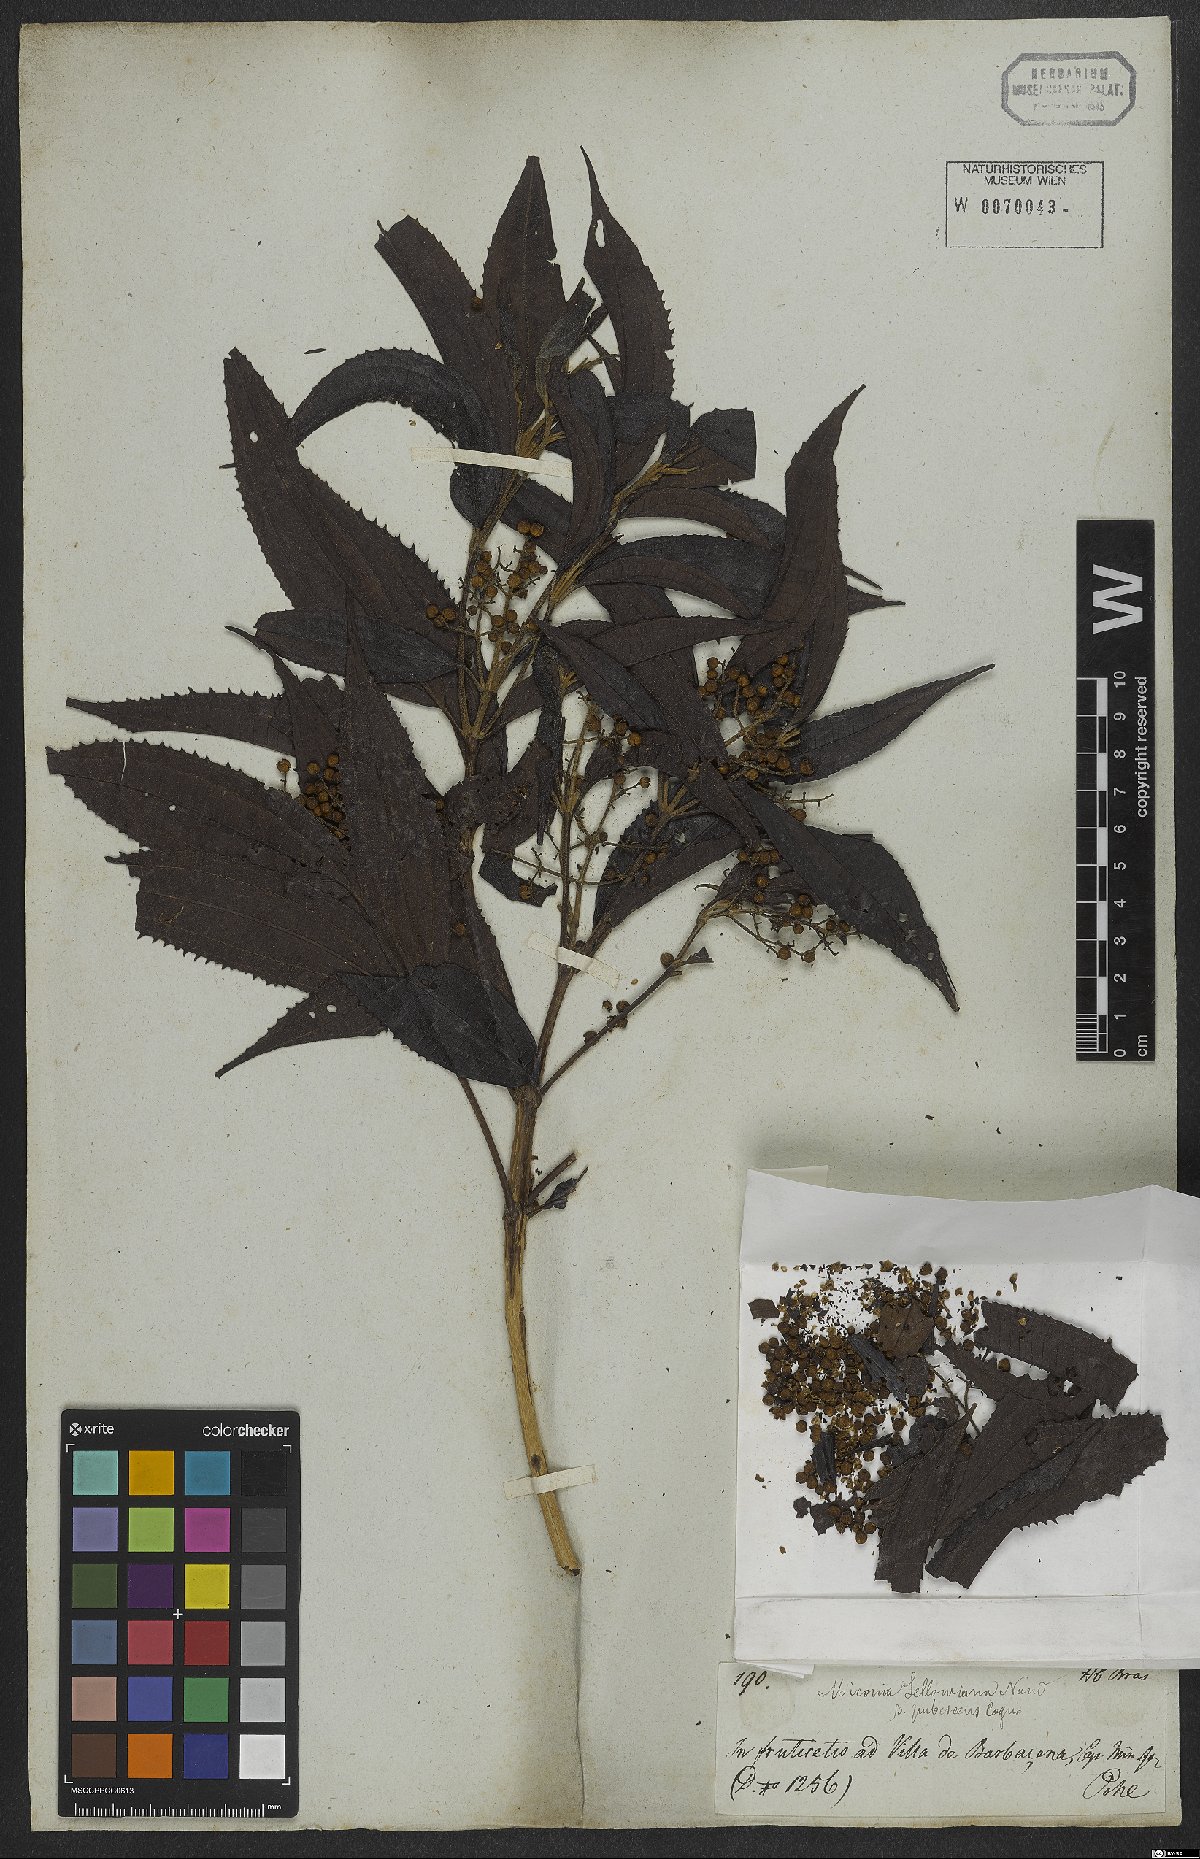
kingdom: Plantae
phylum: Tracheophyta
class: Magnoliopsida
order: Myrtales
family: Melastomataceae
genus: Miconia
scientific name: Miconia sellowiana
